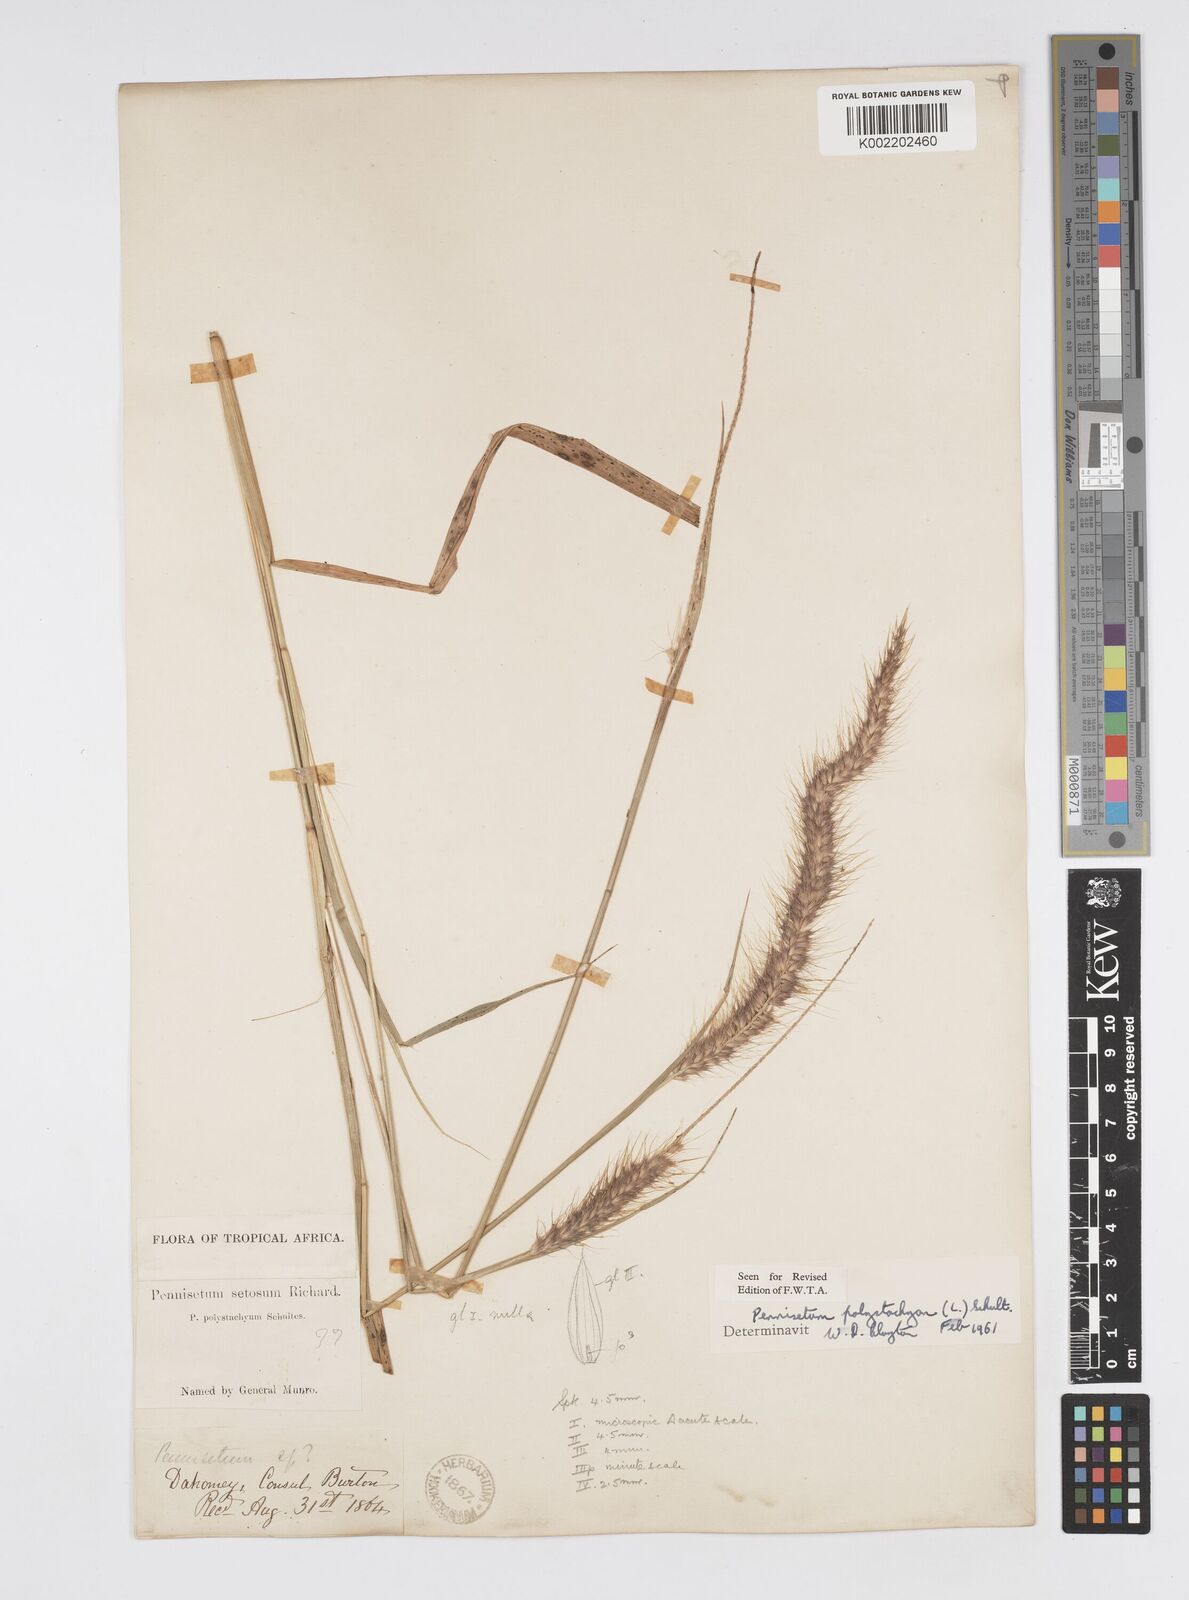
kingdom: Plantae
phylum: Tracheophyta
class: Liliopsida
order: Poales
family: Poaceae
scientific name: Poaceae
